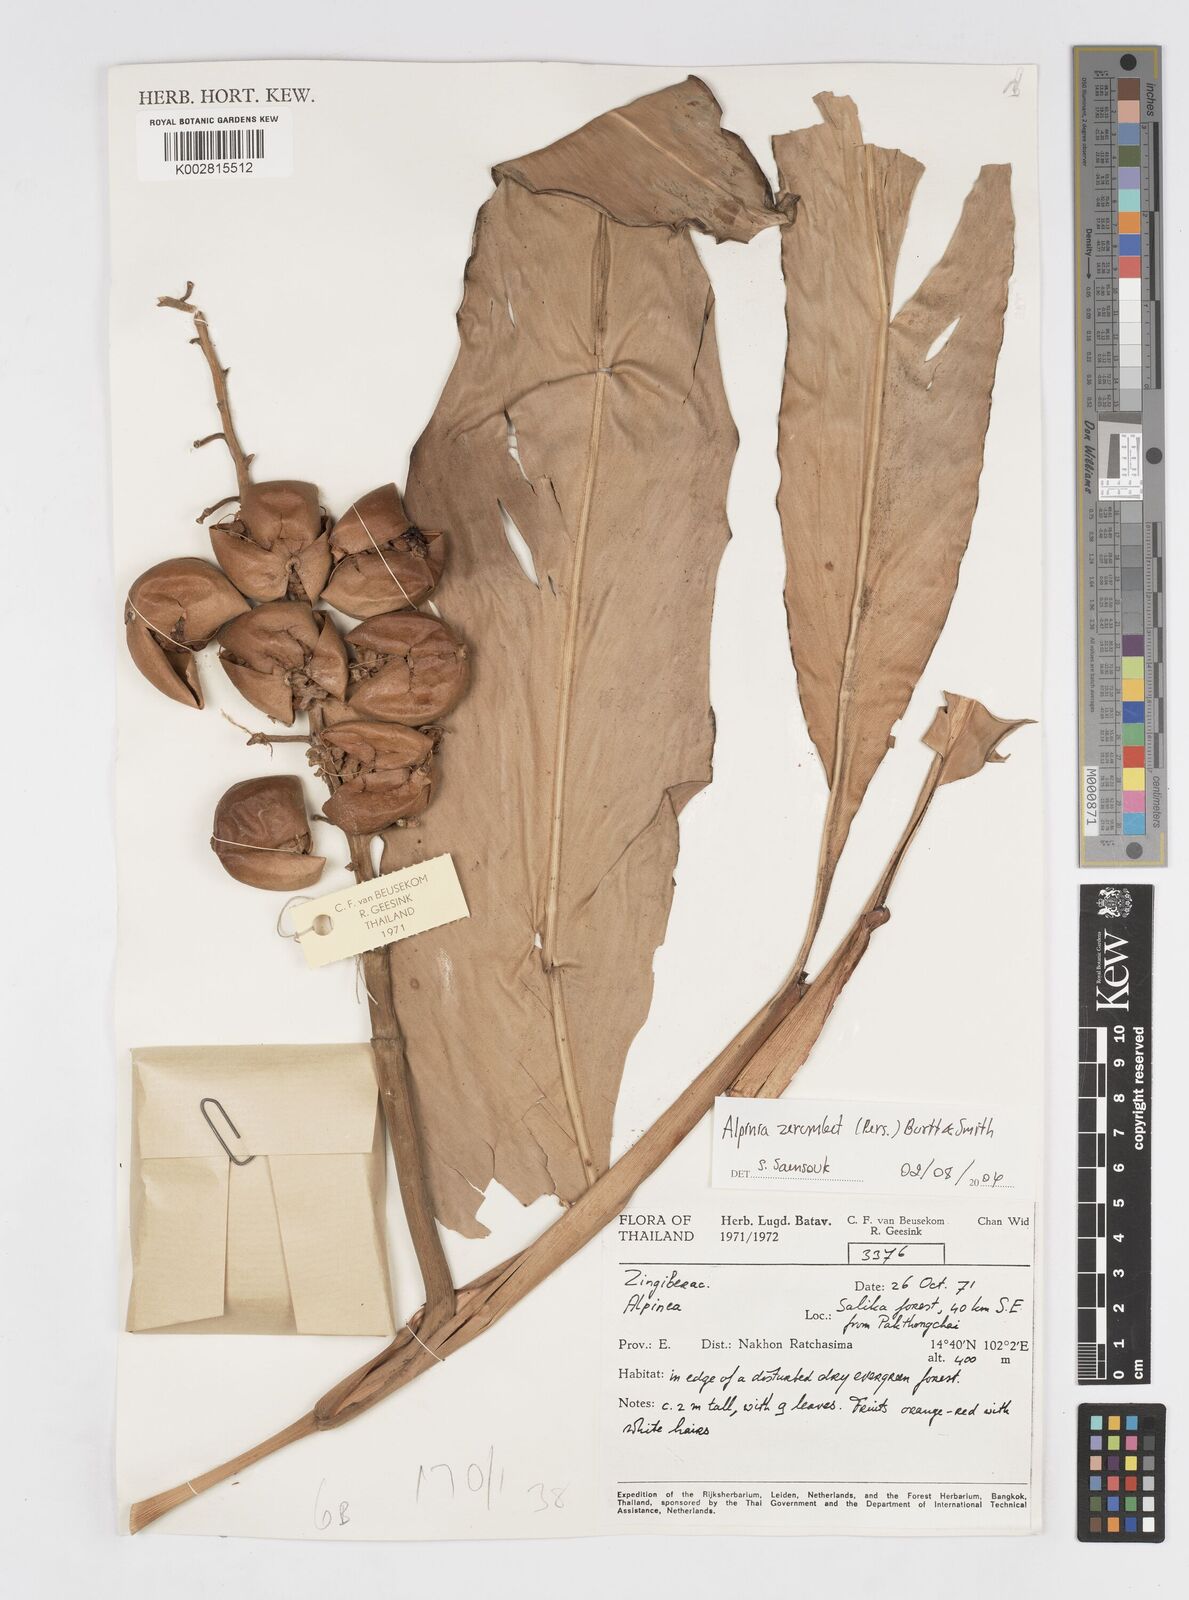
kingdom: Plantae
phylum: Tracheophyta
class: Liliopsida
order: Zingiberales
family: Zingiberaceae
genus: Alpinia
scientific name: Alpinia zerumbet
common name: Shellplant
